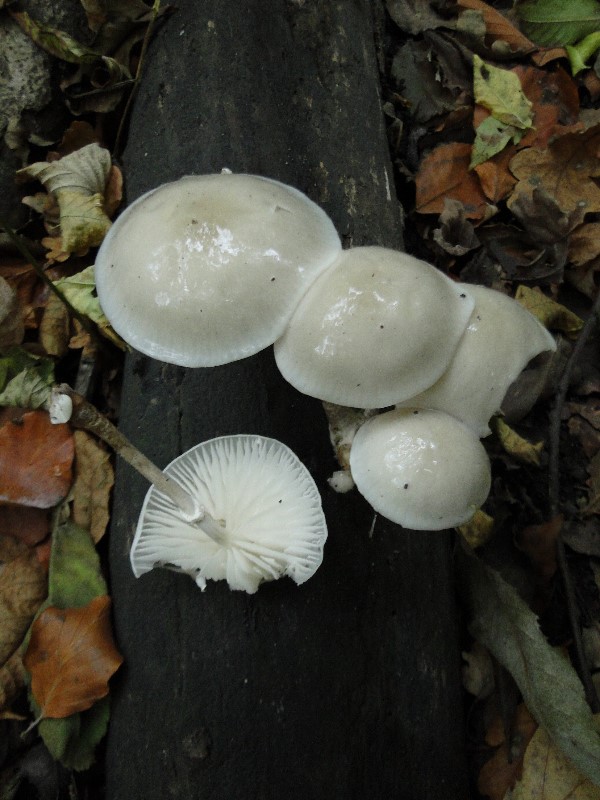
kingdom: Fungi
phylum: Basidiomycota
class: Agaricomycetes
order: Agaricales
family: Physalacriaceae
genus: Mucidula
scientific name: Mucidula mucida
